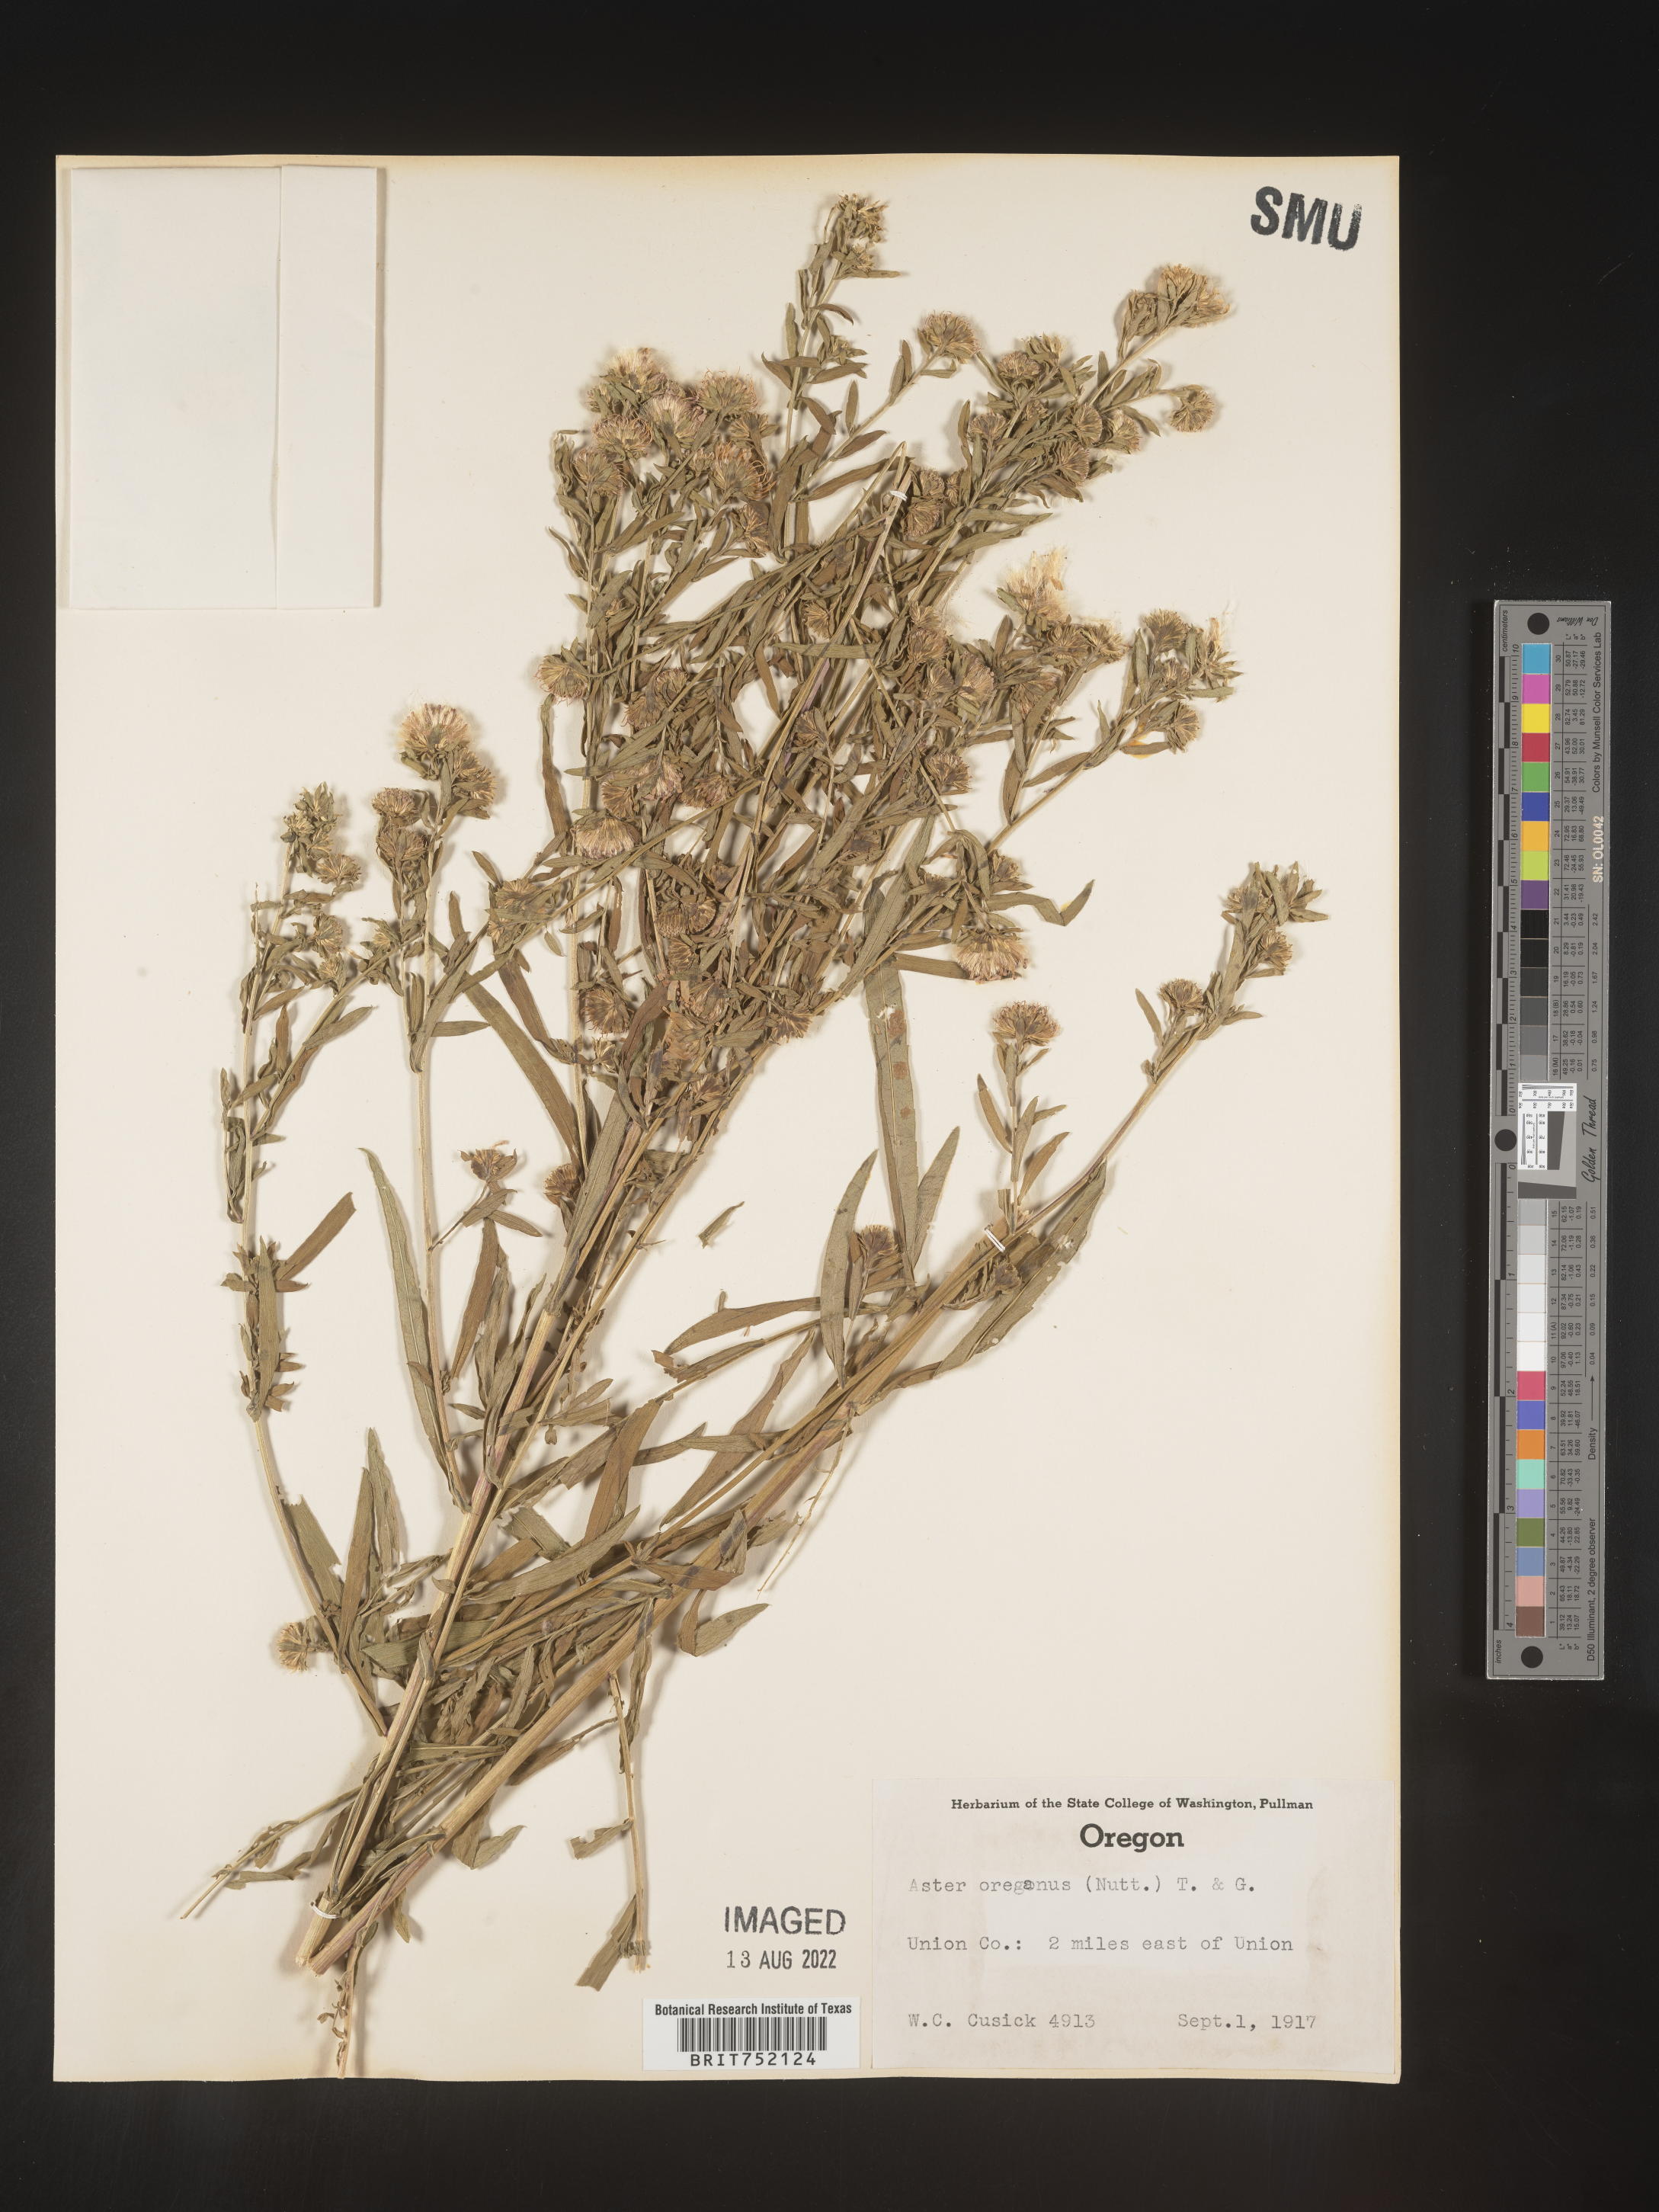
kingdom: Plantae
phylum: Tracheophyta
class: Magnoliopsida
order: Asterales
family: Asteraceae
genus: Sericocarpus
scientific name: Sericocarpus oregonensis
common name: Oregon white-top aster
